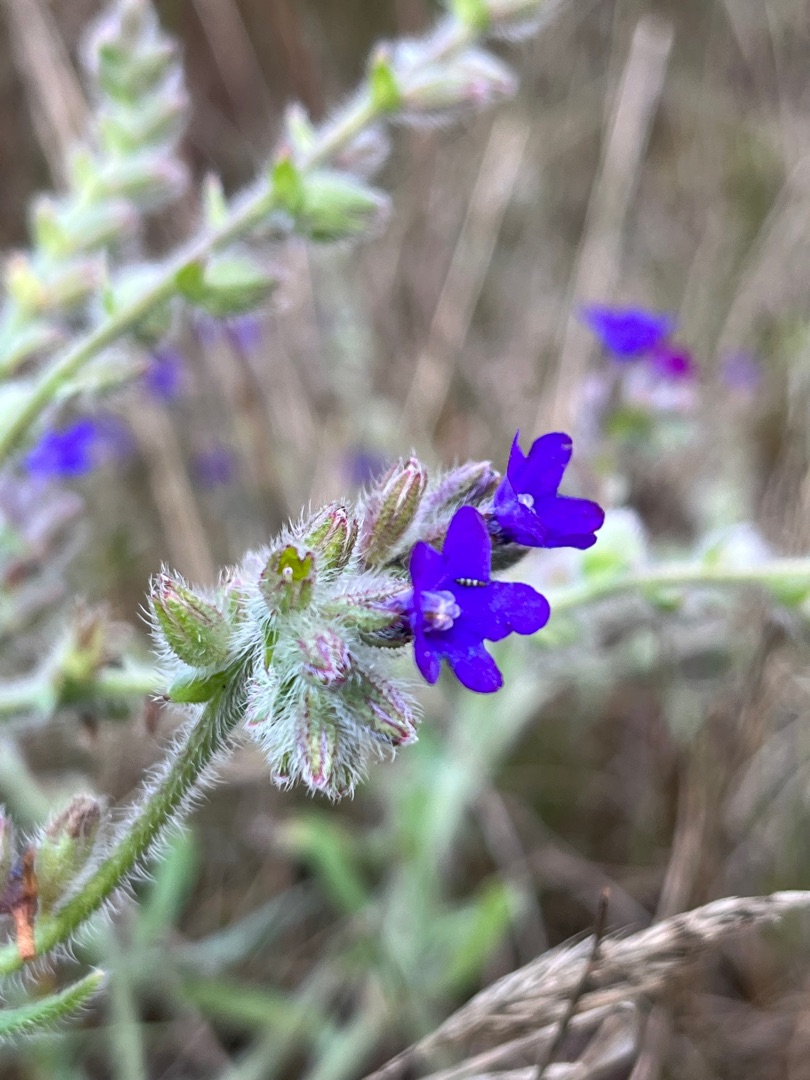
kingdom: Plantae
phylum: Tracheophyta
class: Magnoliopsida
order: Boraginales
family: Boraginaceae
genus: Anchusa
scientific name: Anchusa officinalis
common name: Læge-oksetunge
